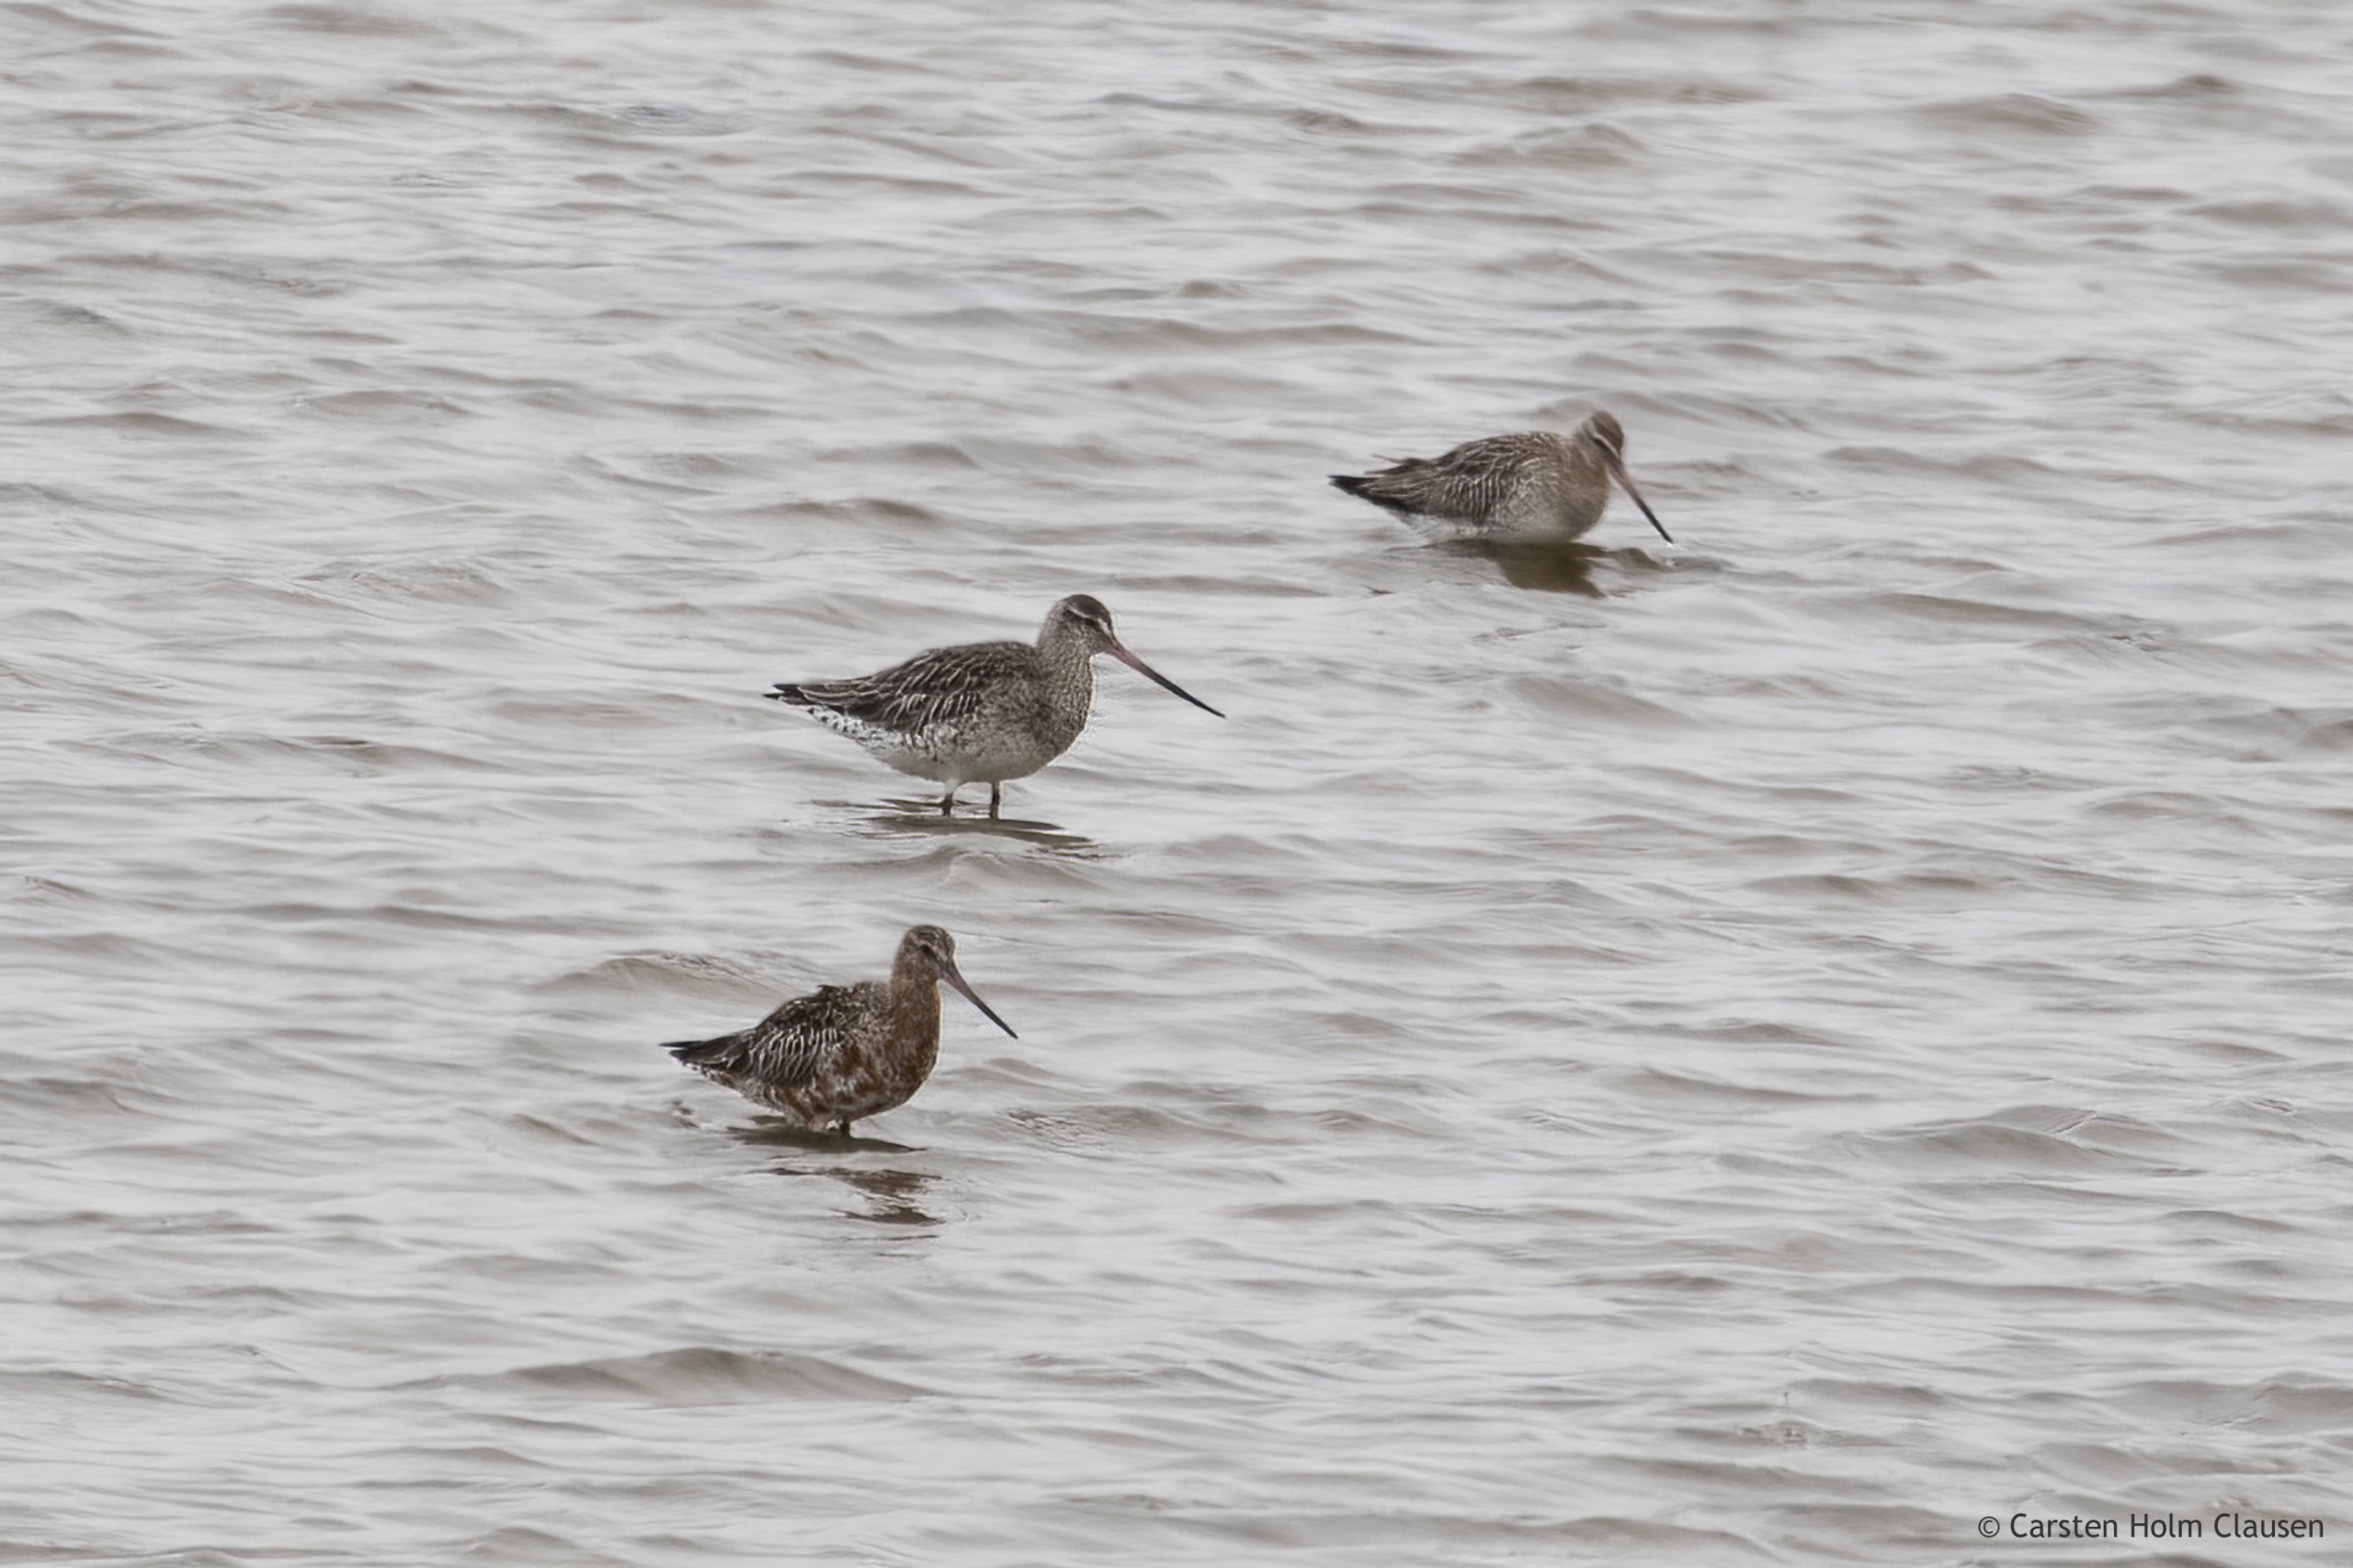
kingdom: Animalia
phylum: Chordata
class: Aves
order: Charadriiformes
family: Scolopacidae
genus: Limosa
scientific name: Limosa lapponica
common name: Lille kobbersneppe
